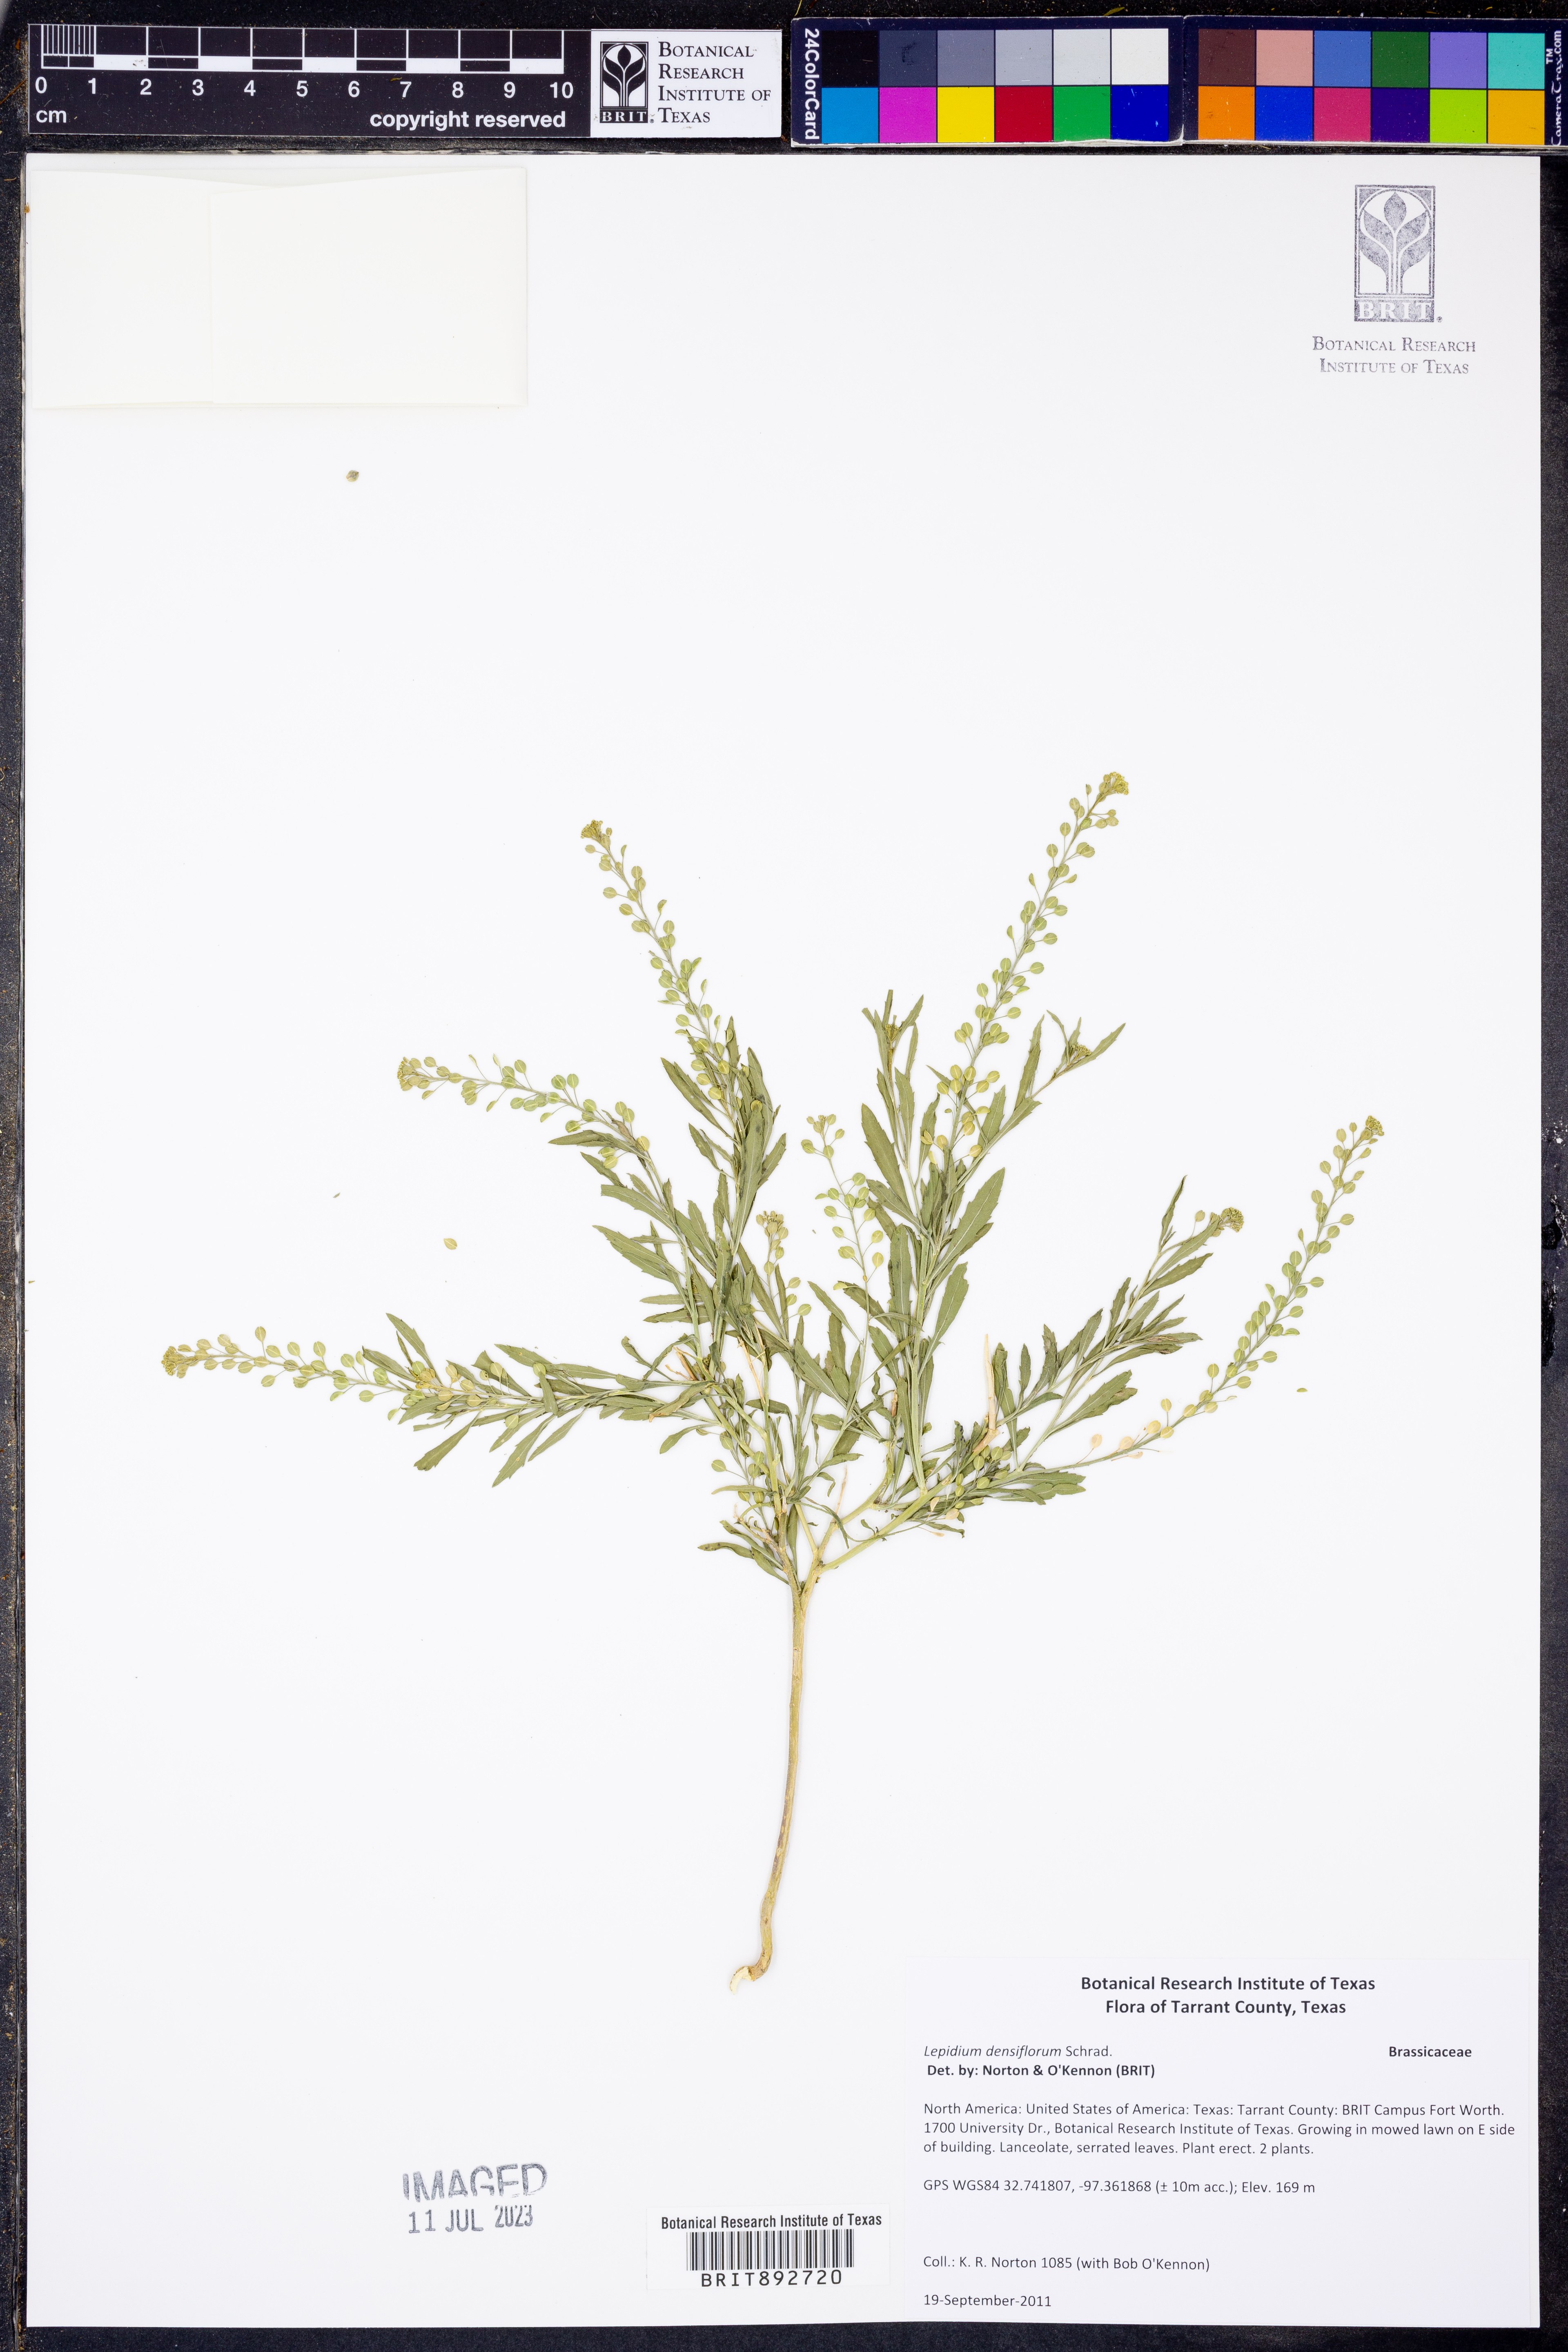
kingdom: Plantae
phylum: Tracheophyta
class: Magnoliopsida
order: Brassicales
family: Brassicaceae
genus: Lepidium
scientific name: Lepidium densiflorum
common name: Miner's pepperwort
